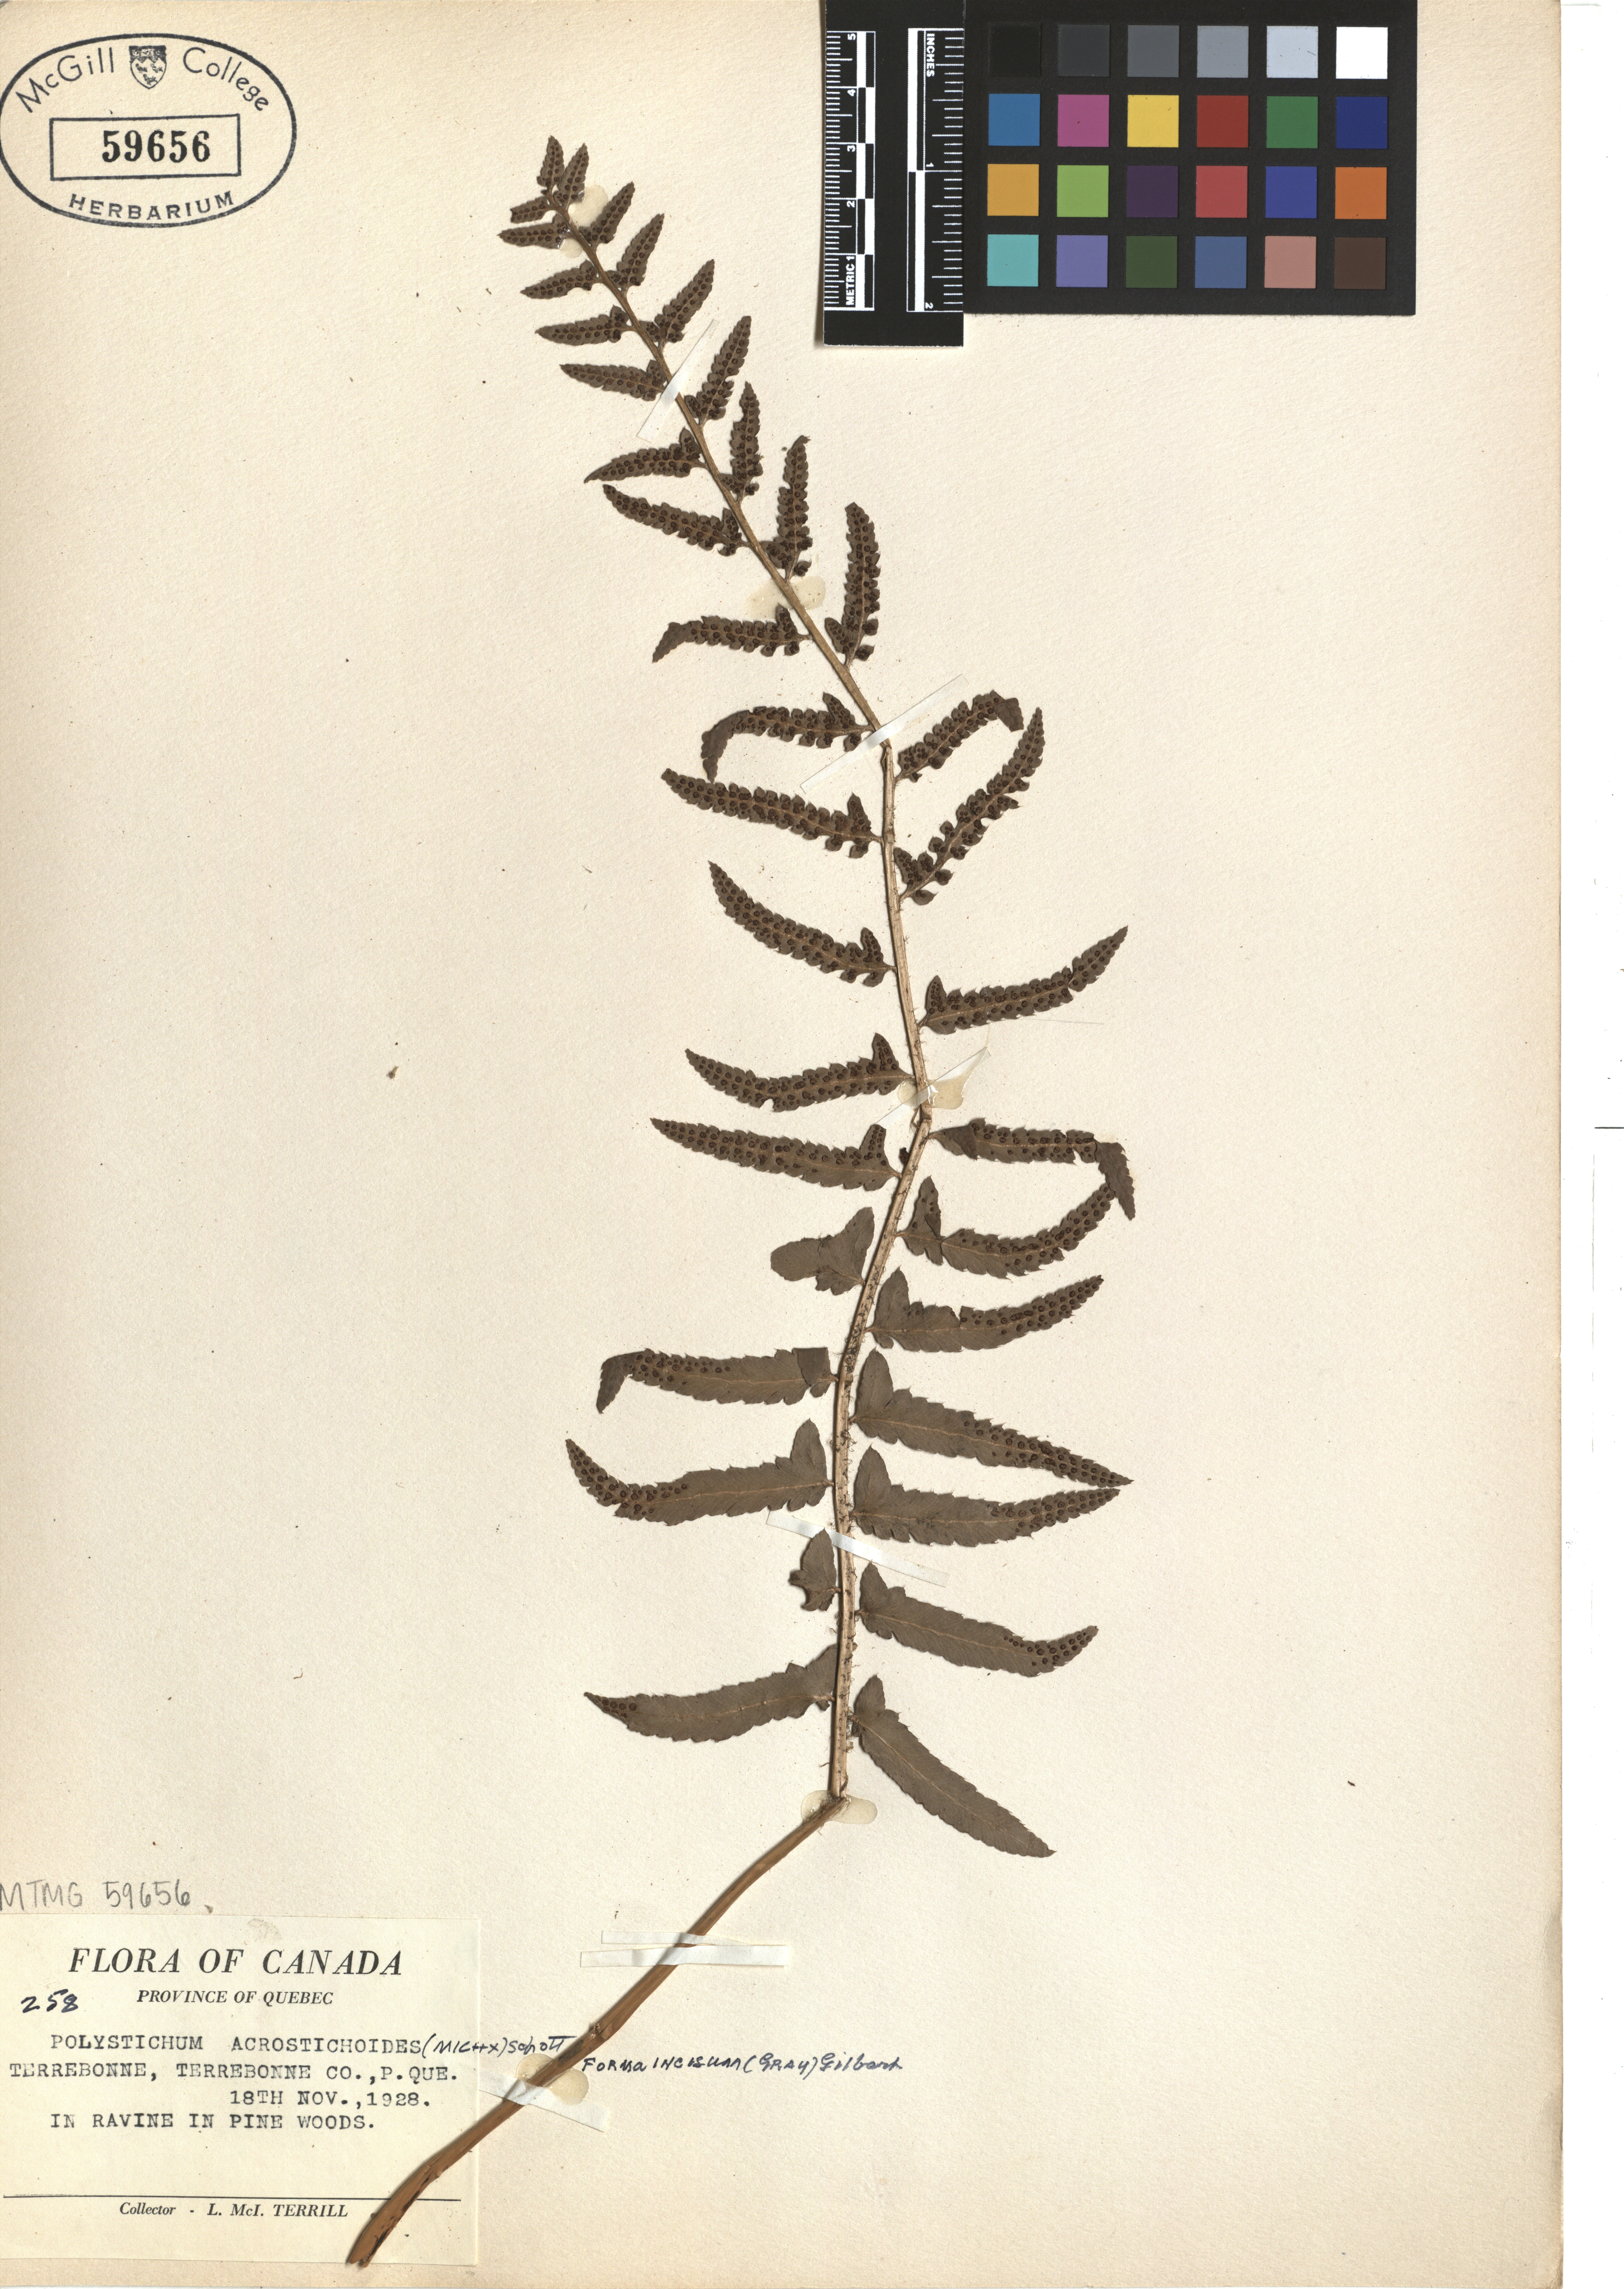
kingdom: Plantae
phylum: Tracheophyta
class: Polypodiopsida
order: Polypodiales
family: Dryopteridaceae
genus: Polystichum
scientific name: Polystichum acrostichoides
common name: Christmas fern
